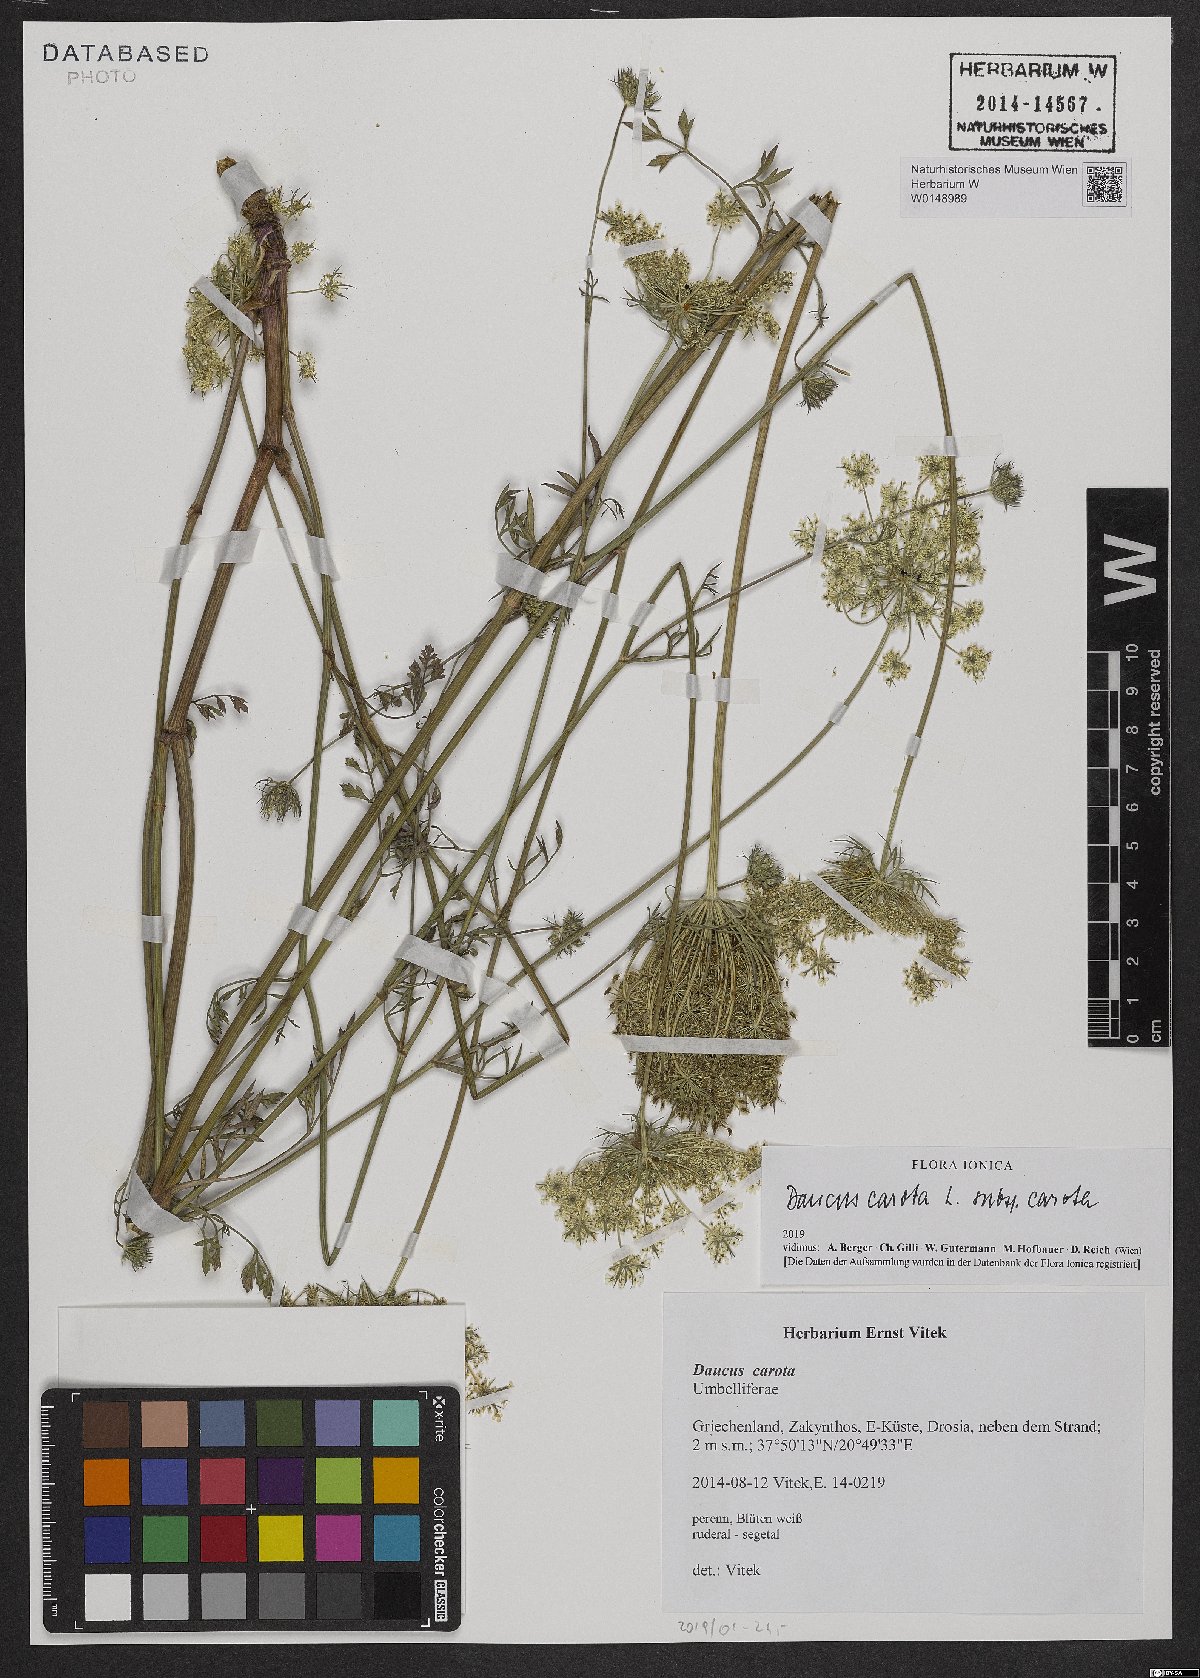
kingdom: Plantae
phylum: Tracheophyta
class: Magnoliopsida
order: Apiales
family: Apiaceae
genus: Daucus
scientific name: Daucus carota
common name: Wild carrot
